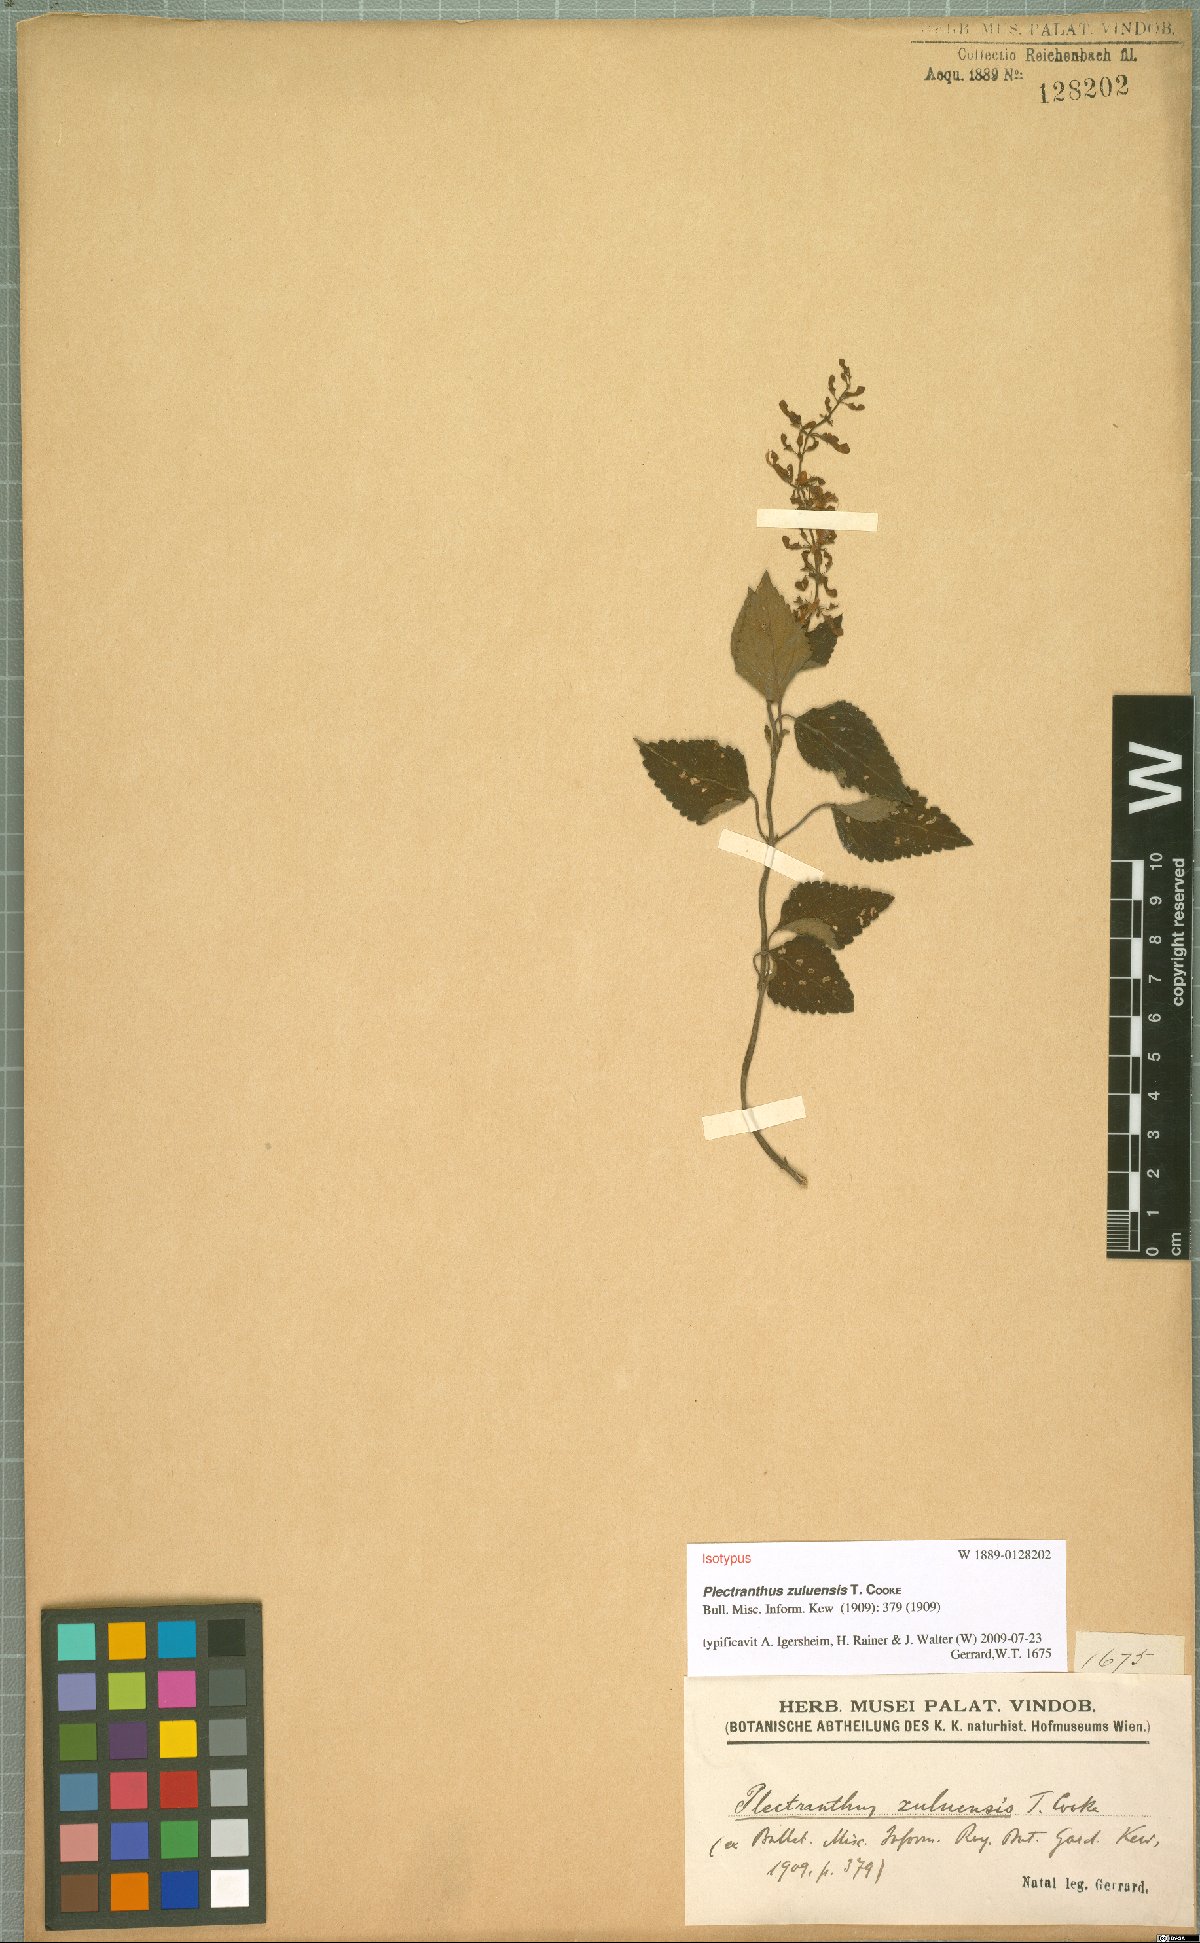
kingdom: Plantae
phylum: Tracheophyta
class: Magnoliopsida
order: Lamiales
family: Lamiaceae
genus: Plectranthus
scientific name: Plectranthus zuluensis
